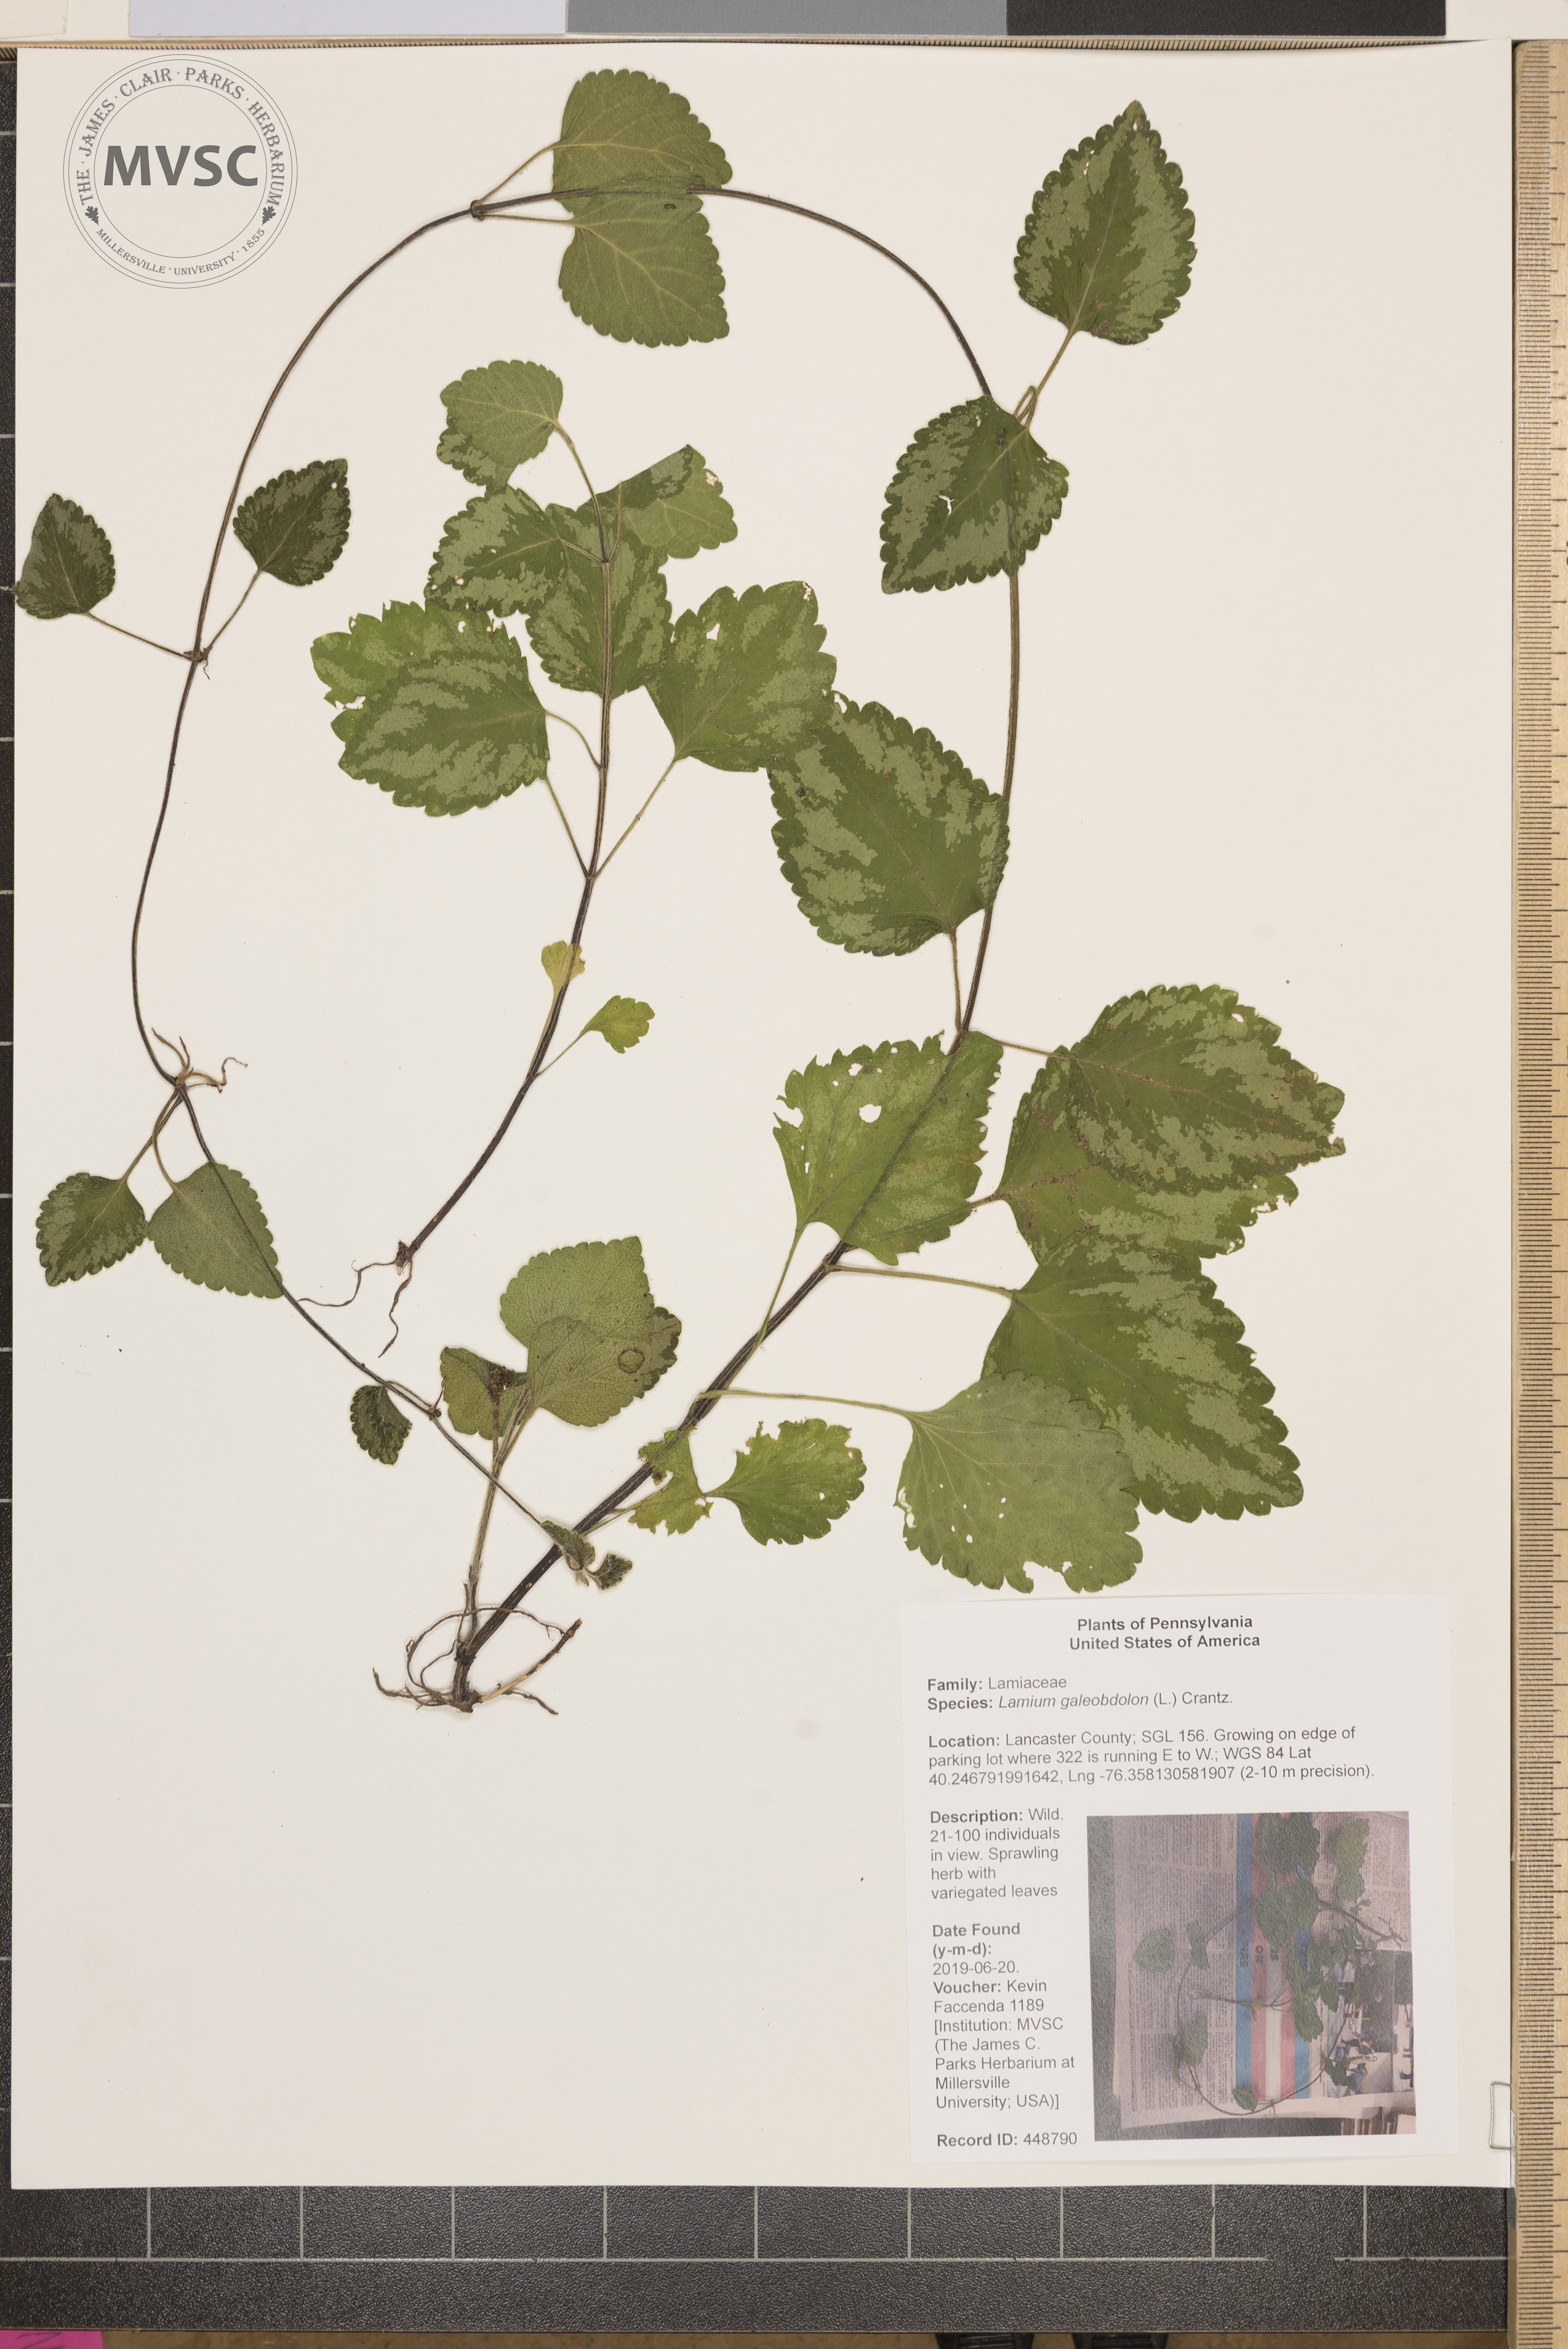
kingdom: Plantae
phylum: Tracheophyta
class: Magnoliopsida
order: Lamiales
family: Lamiaceae
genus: Lamium
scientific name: Lamium galeobdolon
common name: Yellow archangel
